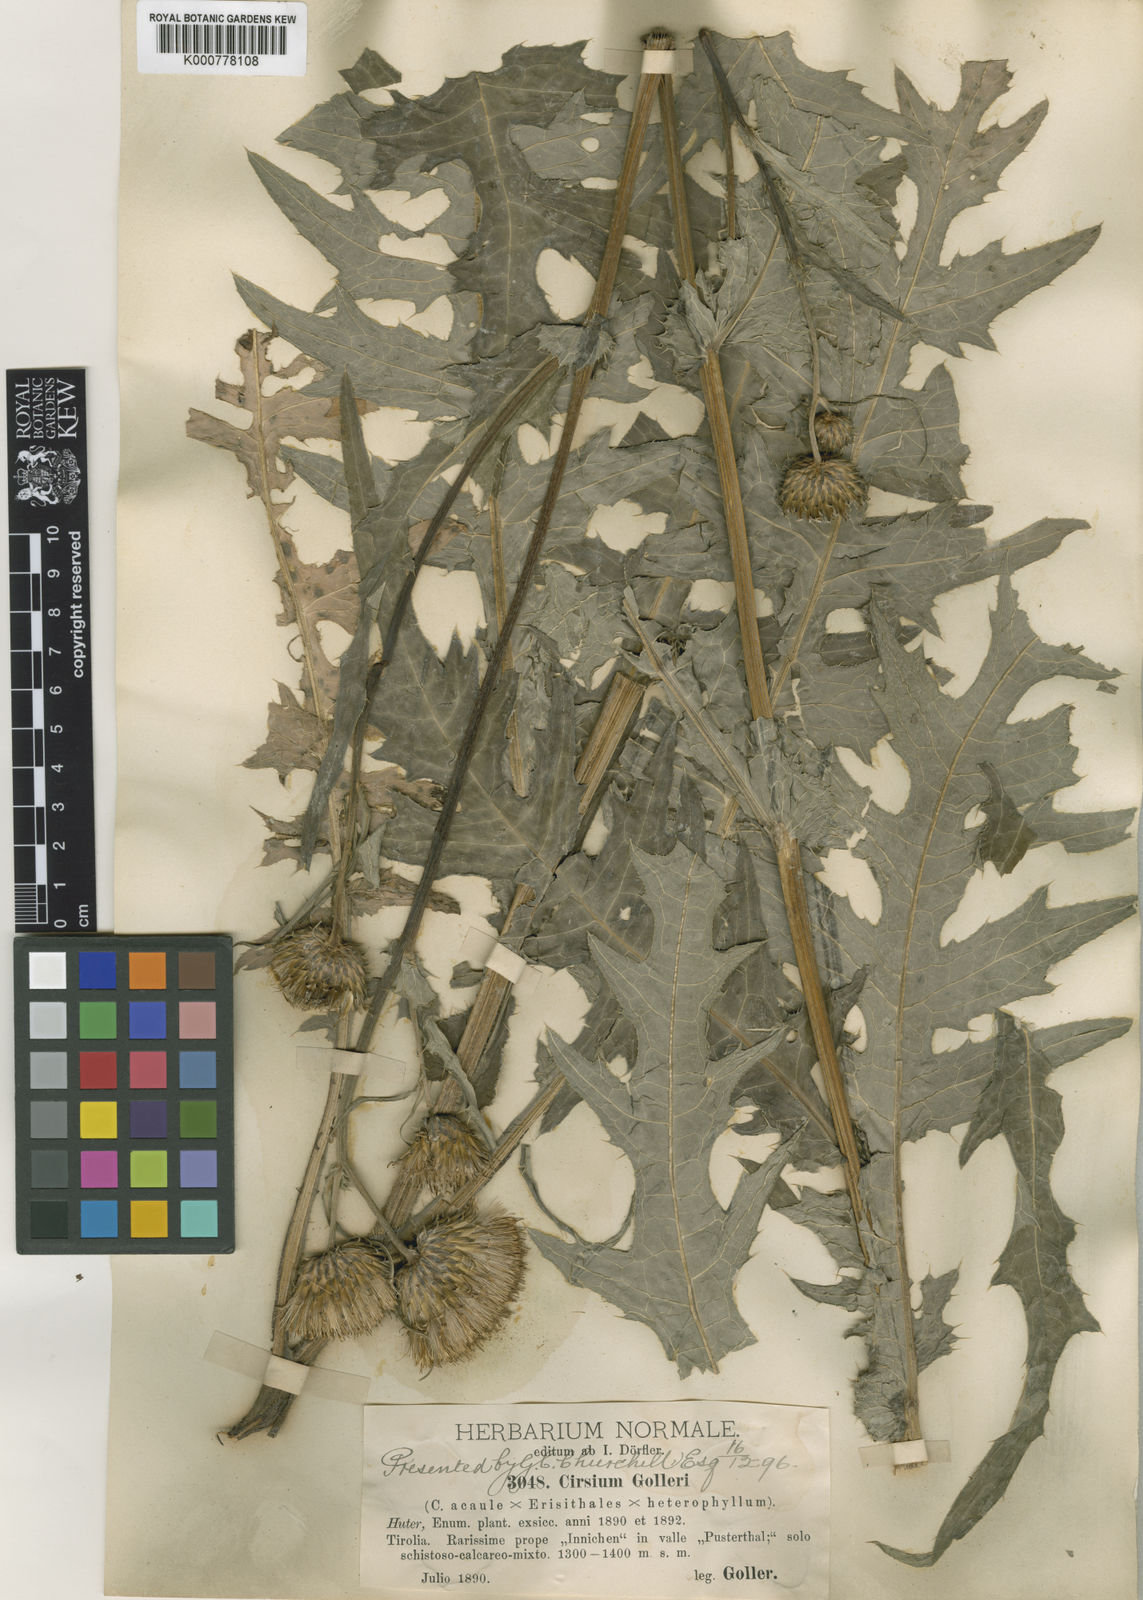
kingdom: Plantae
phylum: Tracheophyta
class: Magnoliopsida
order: Asterales
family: Asteraceae
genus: Cirsium
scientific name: Cirsium
